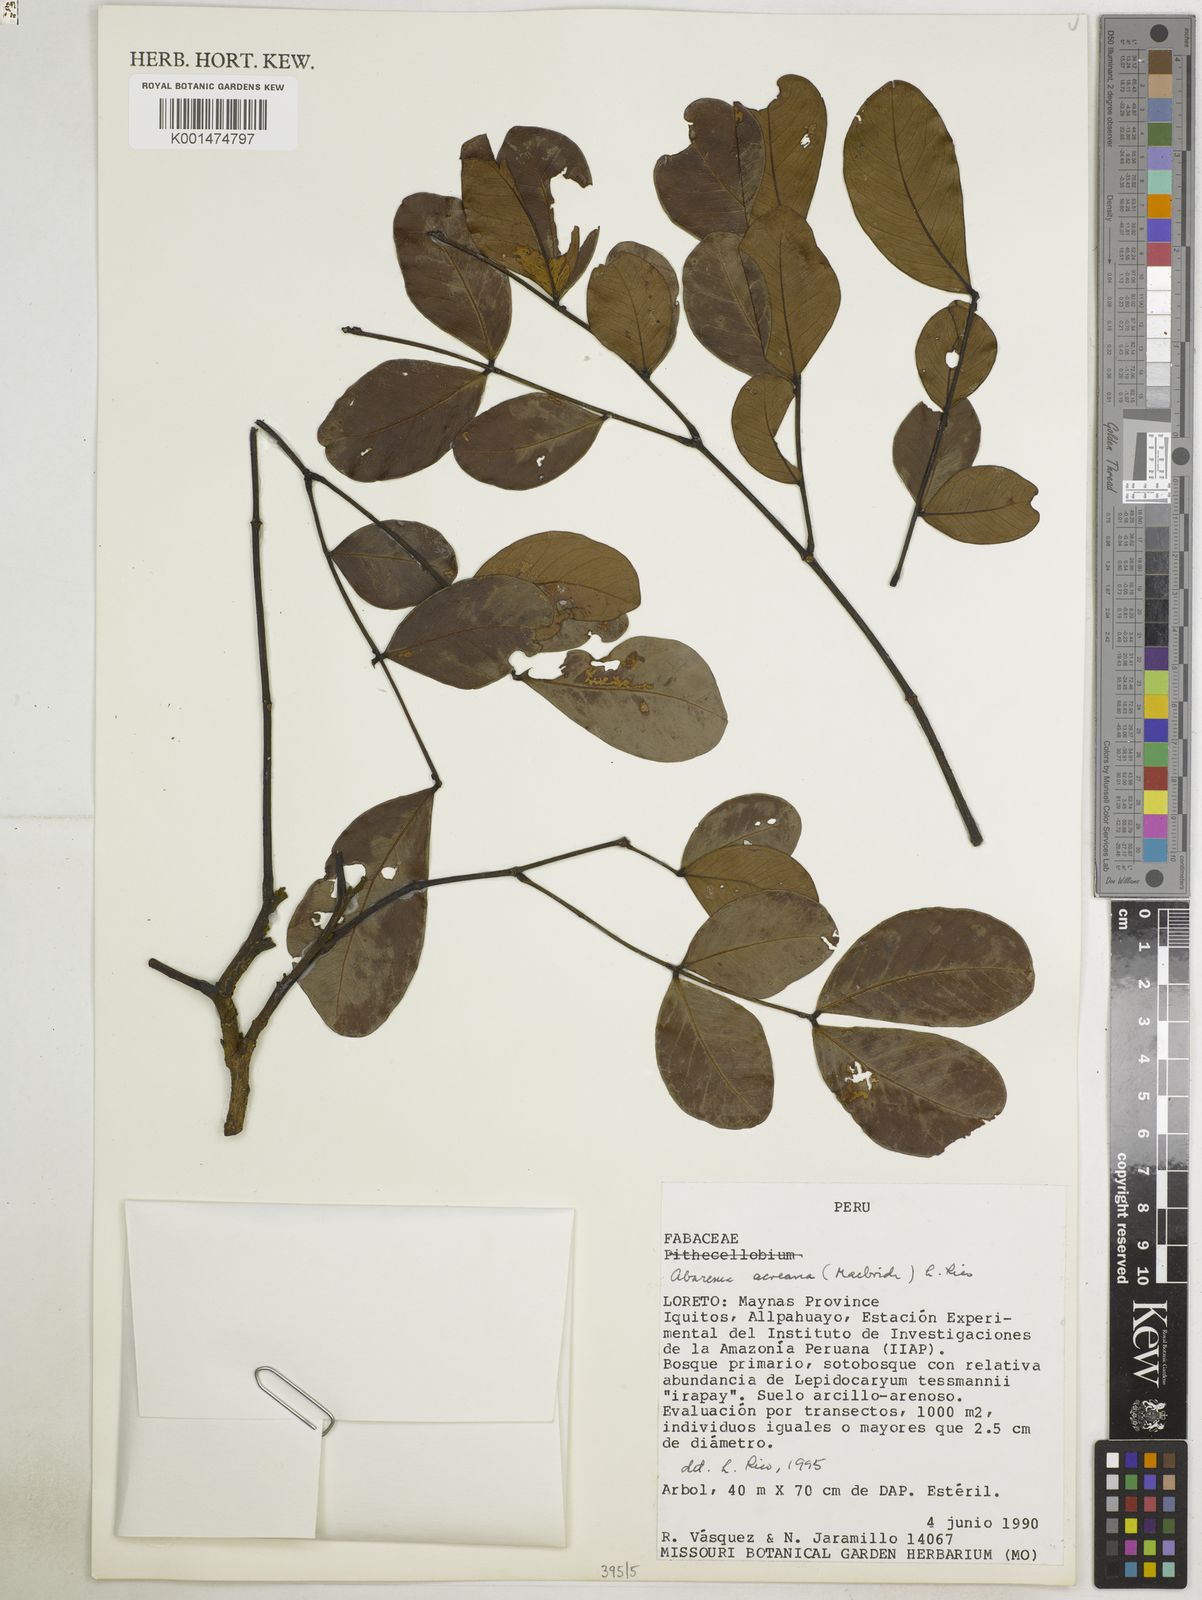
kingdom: Plantae
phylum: Tracheophyta
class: Magnoliopsida
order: Fabales
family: Fabaceae
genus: Hydrochorea
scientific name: Hydrochorea acreana
